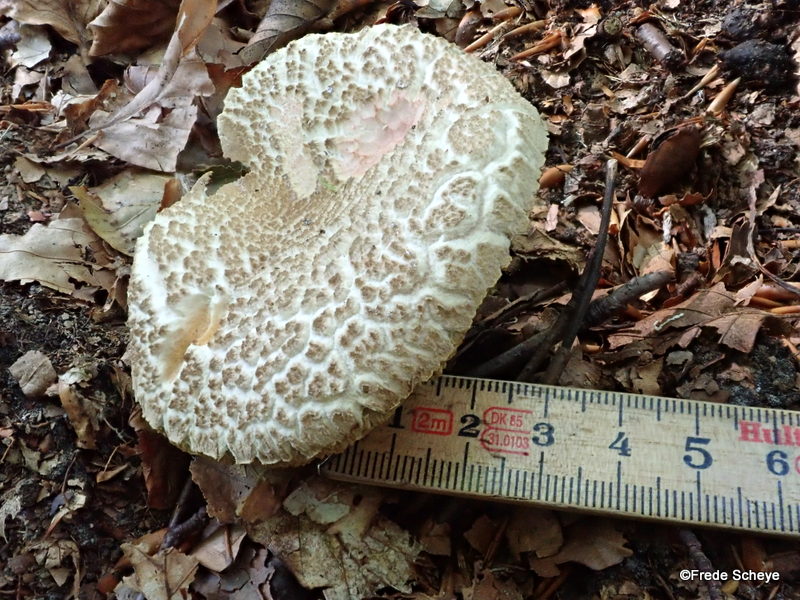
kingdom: Fungi
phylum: Basidiomycota
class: Agaricomycetes
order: Boletales
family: Boletaceae
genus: Xerocomellus
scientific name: Xerocomellus chrysenteron
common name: rødsprukken rørhat
